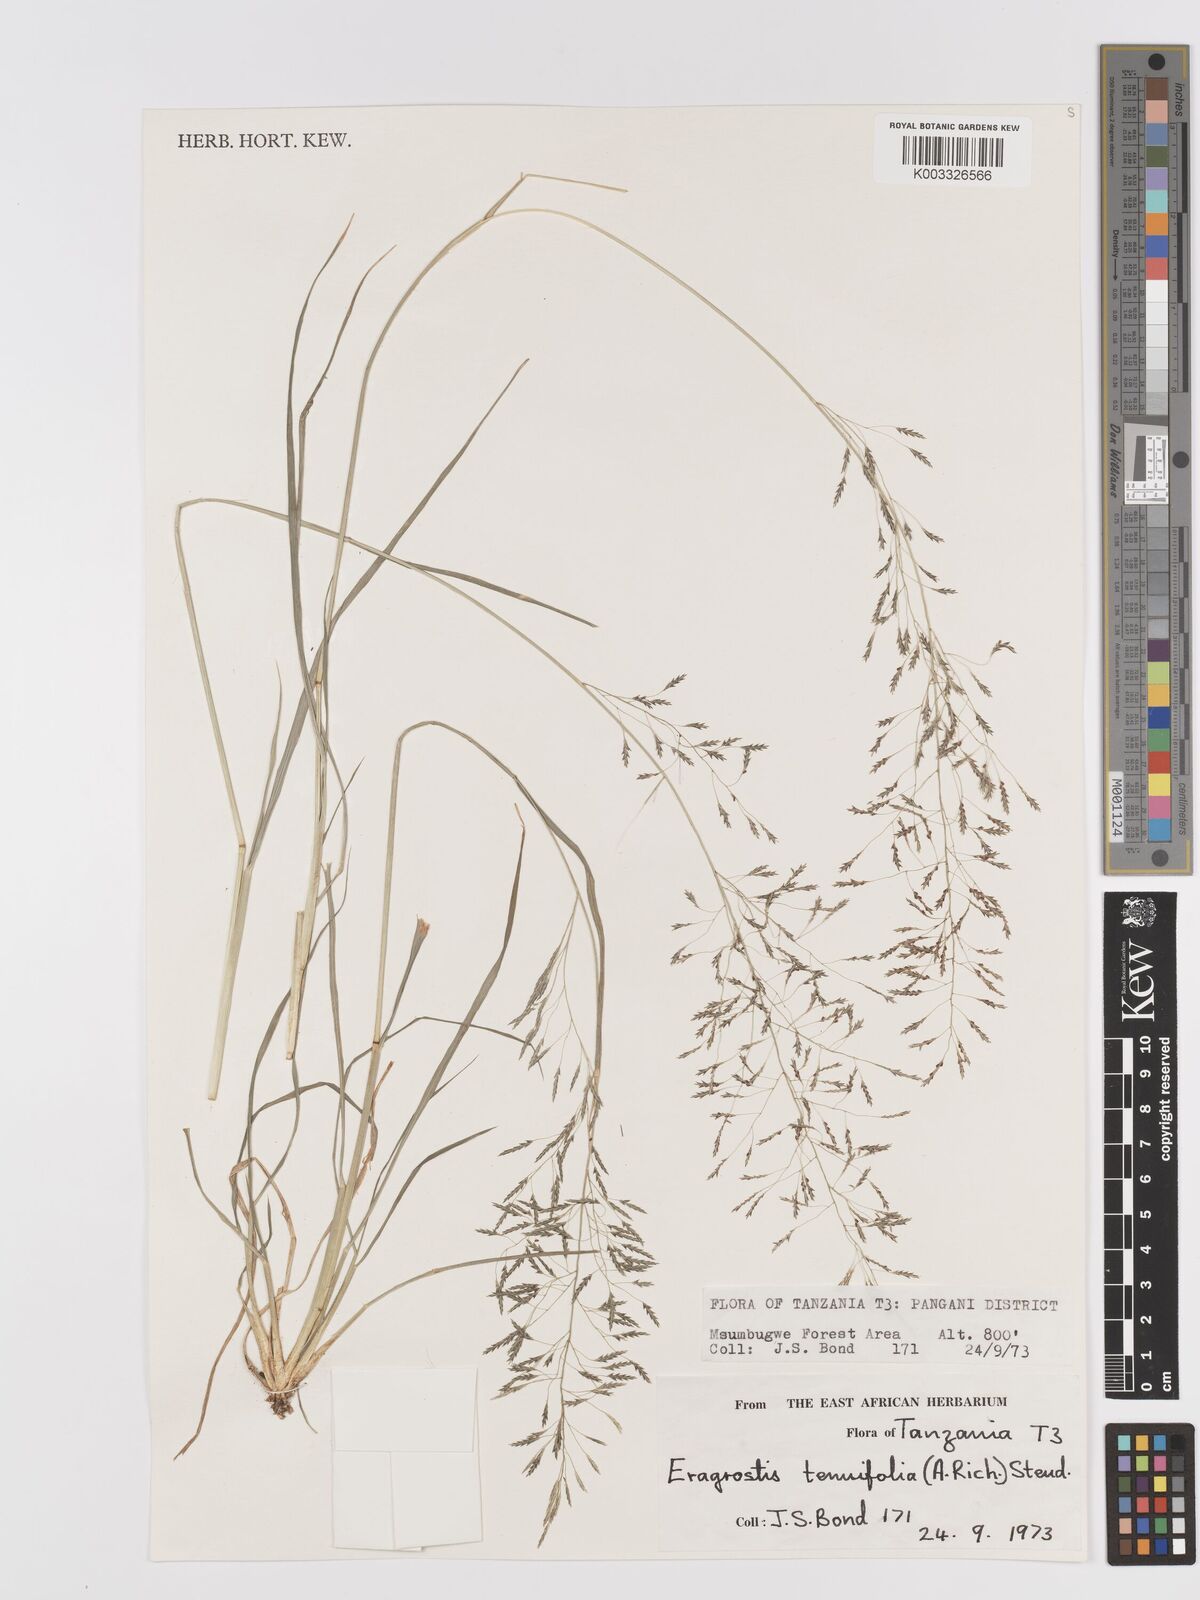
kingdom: Plantae
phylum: Tracheophyta
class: Liliopsida
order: Poales
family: Poaceae
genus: Eragrostis
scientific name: Eragrostis tenuifolia
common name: Elastic grass
